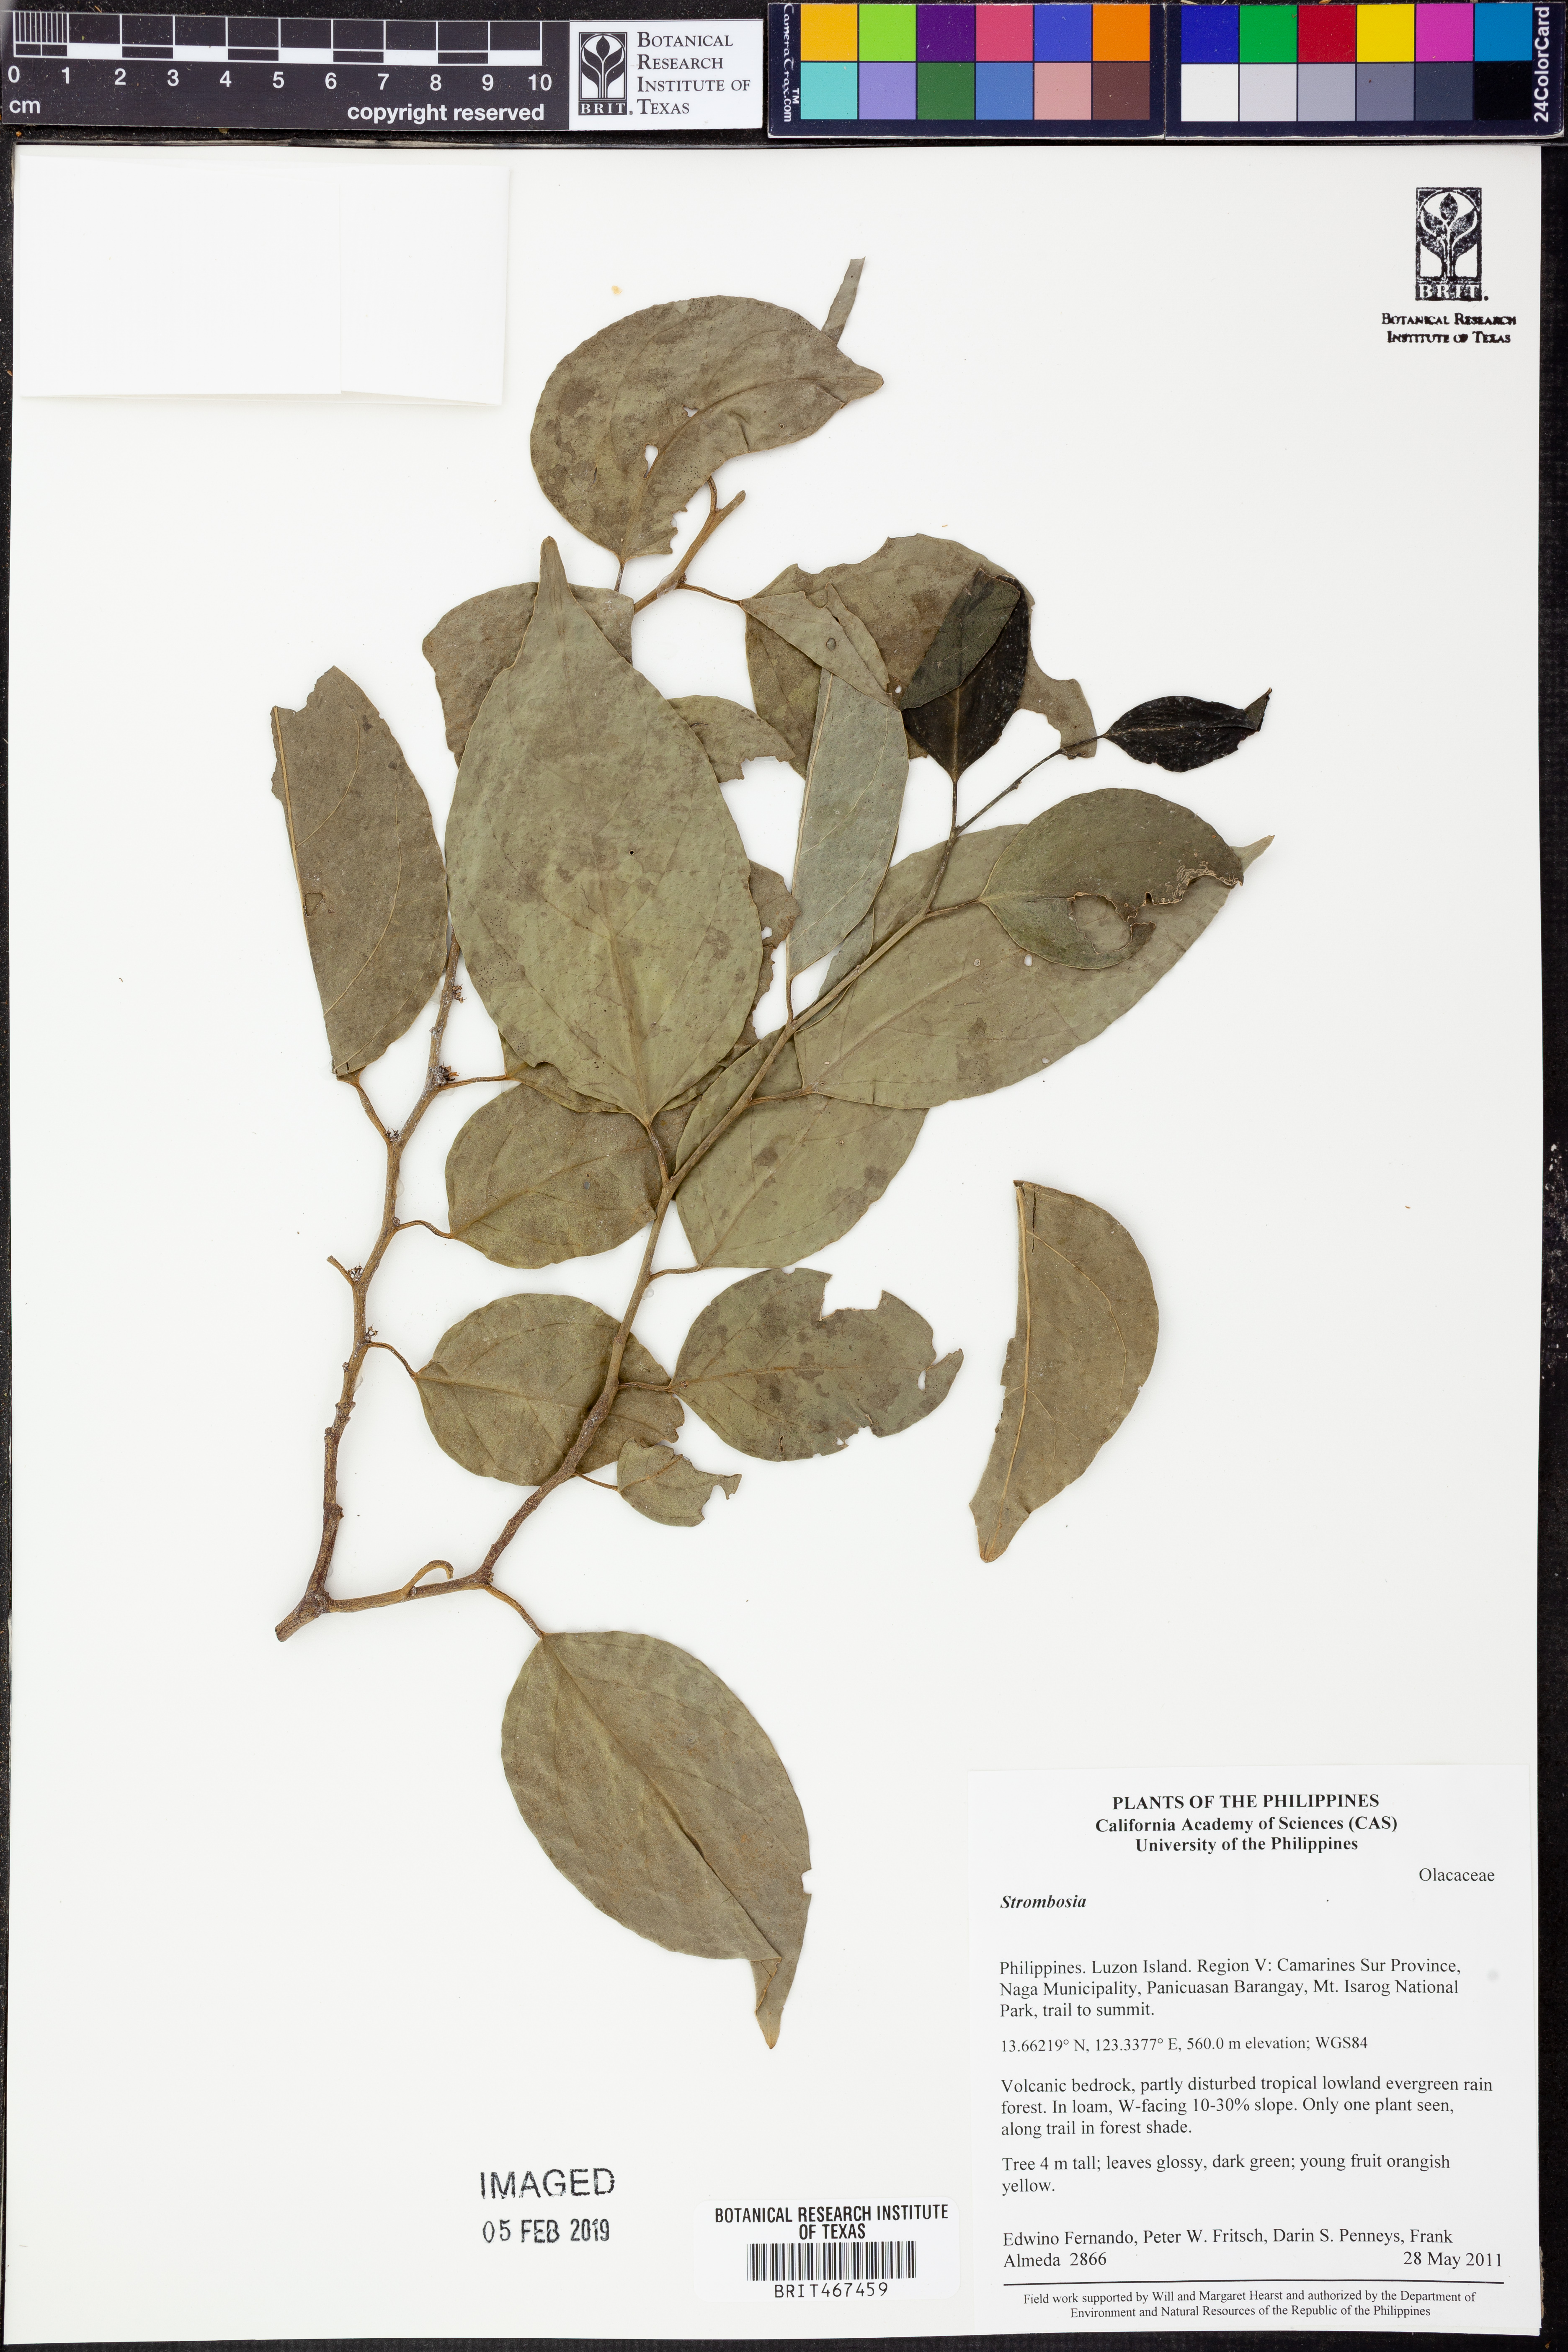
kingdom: Plantae
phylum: Tracheophyta
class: Magnoliopsida
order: Santalales
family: Strombosiaceae
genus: Strombosia
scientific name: Strombosia
